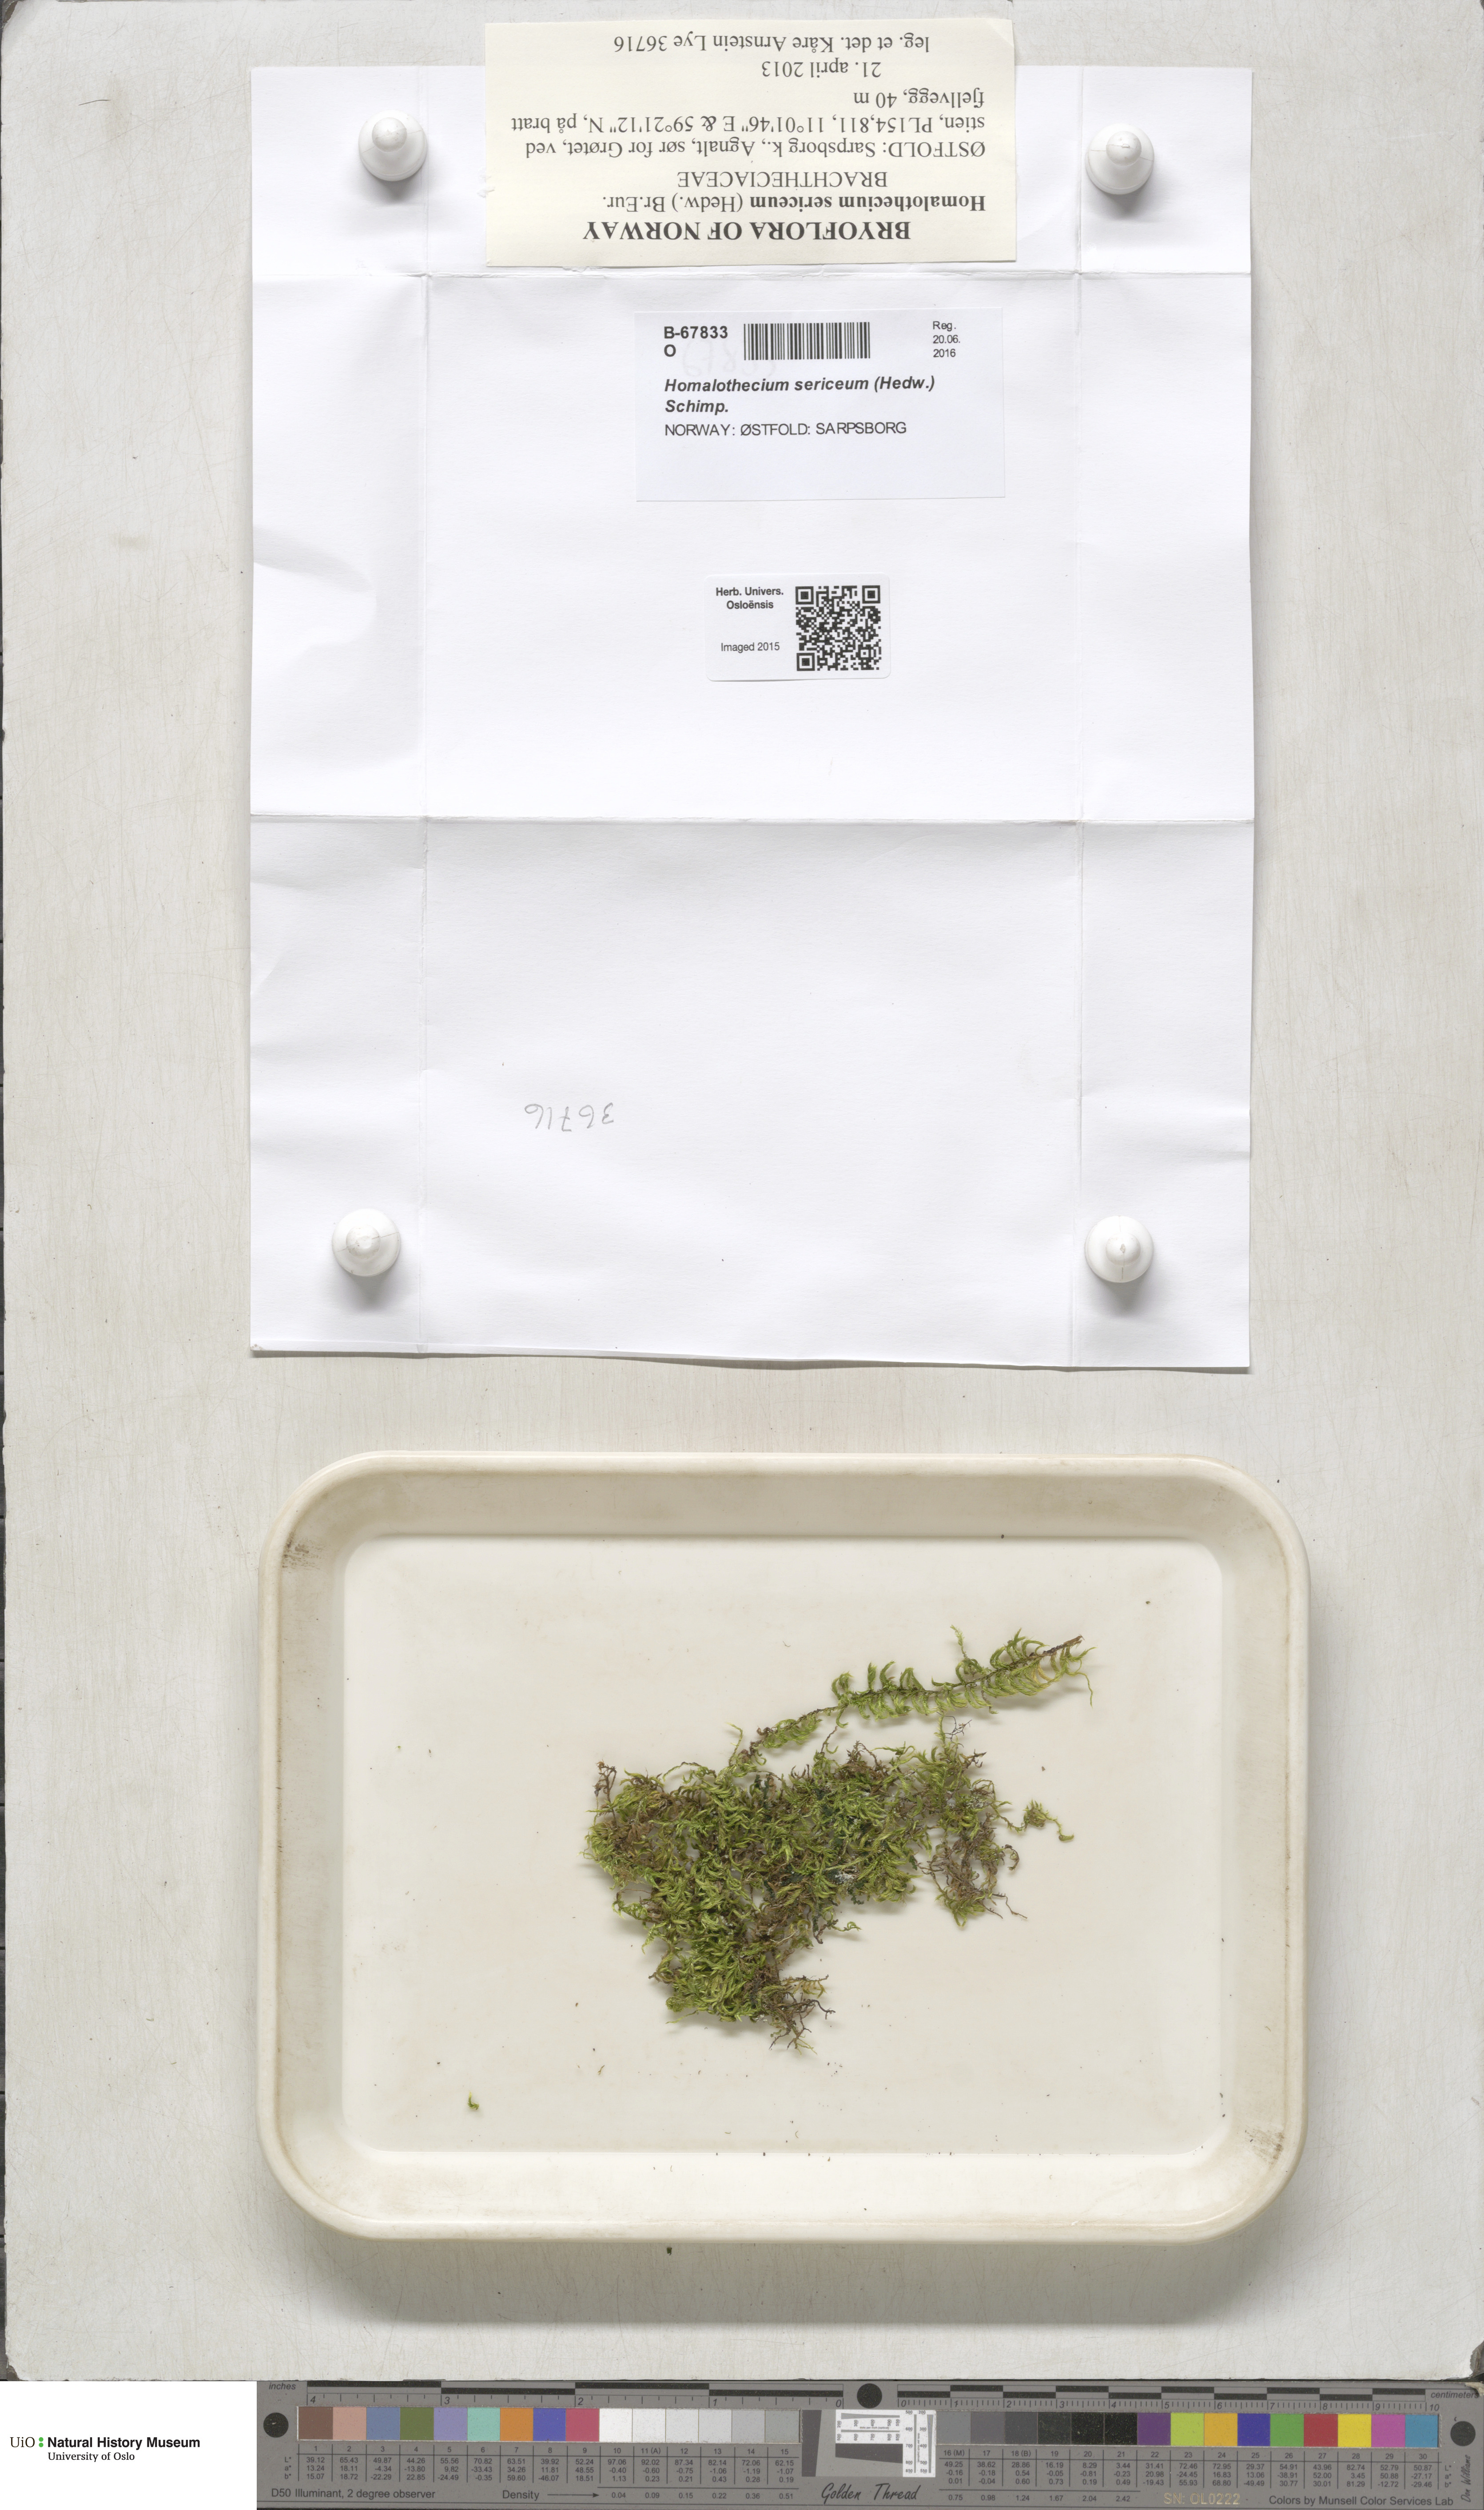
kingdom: Plantae
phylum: Bryophyta
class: Bryopsida
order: Hypnales
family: Brachytheciaceae
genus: Homalothecium
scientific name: Homalothecium sericeum
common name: Silky wall feather-moss
